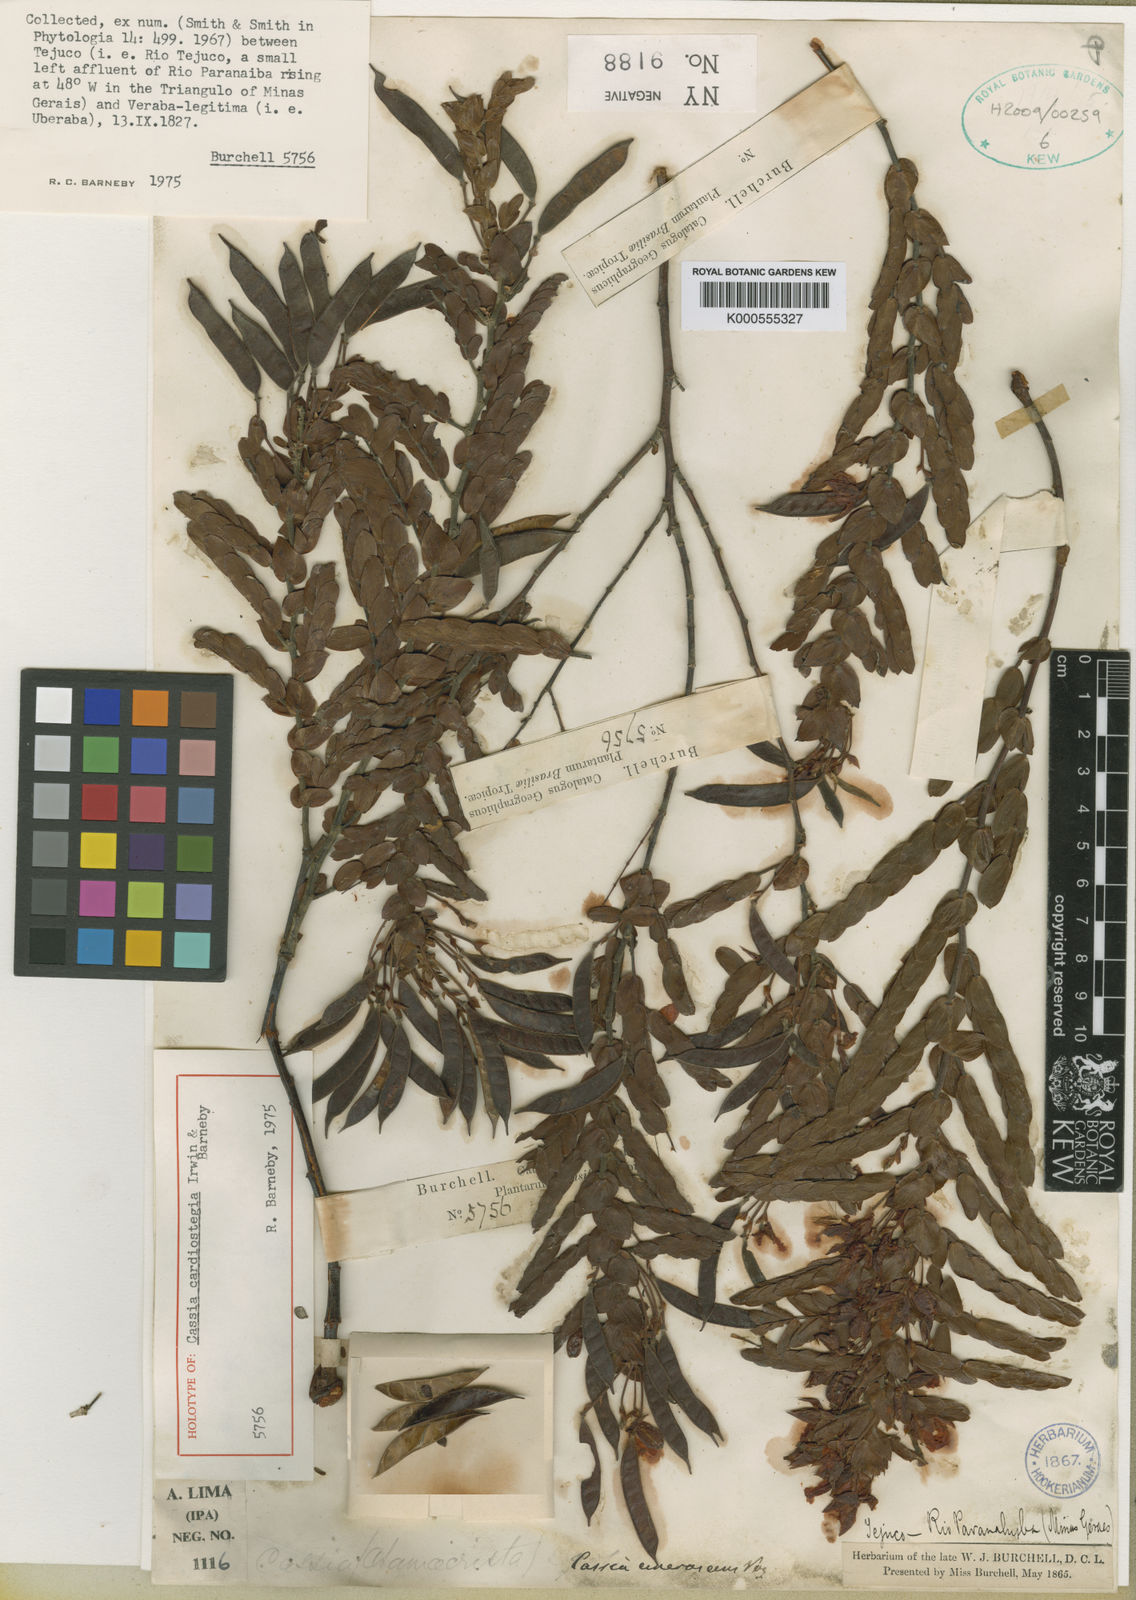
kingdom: Plantae
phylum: Tracheophyta
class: Magnoliopsida
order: Fabales
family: Fabaceae
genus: Chamaecrista
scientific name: Chamaecrista cardiostegia
